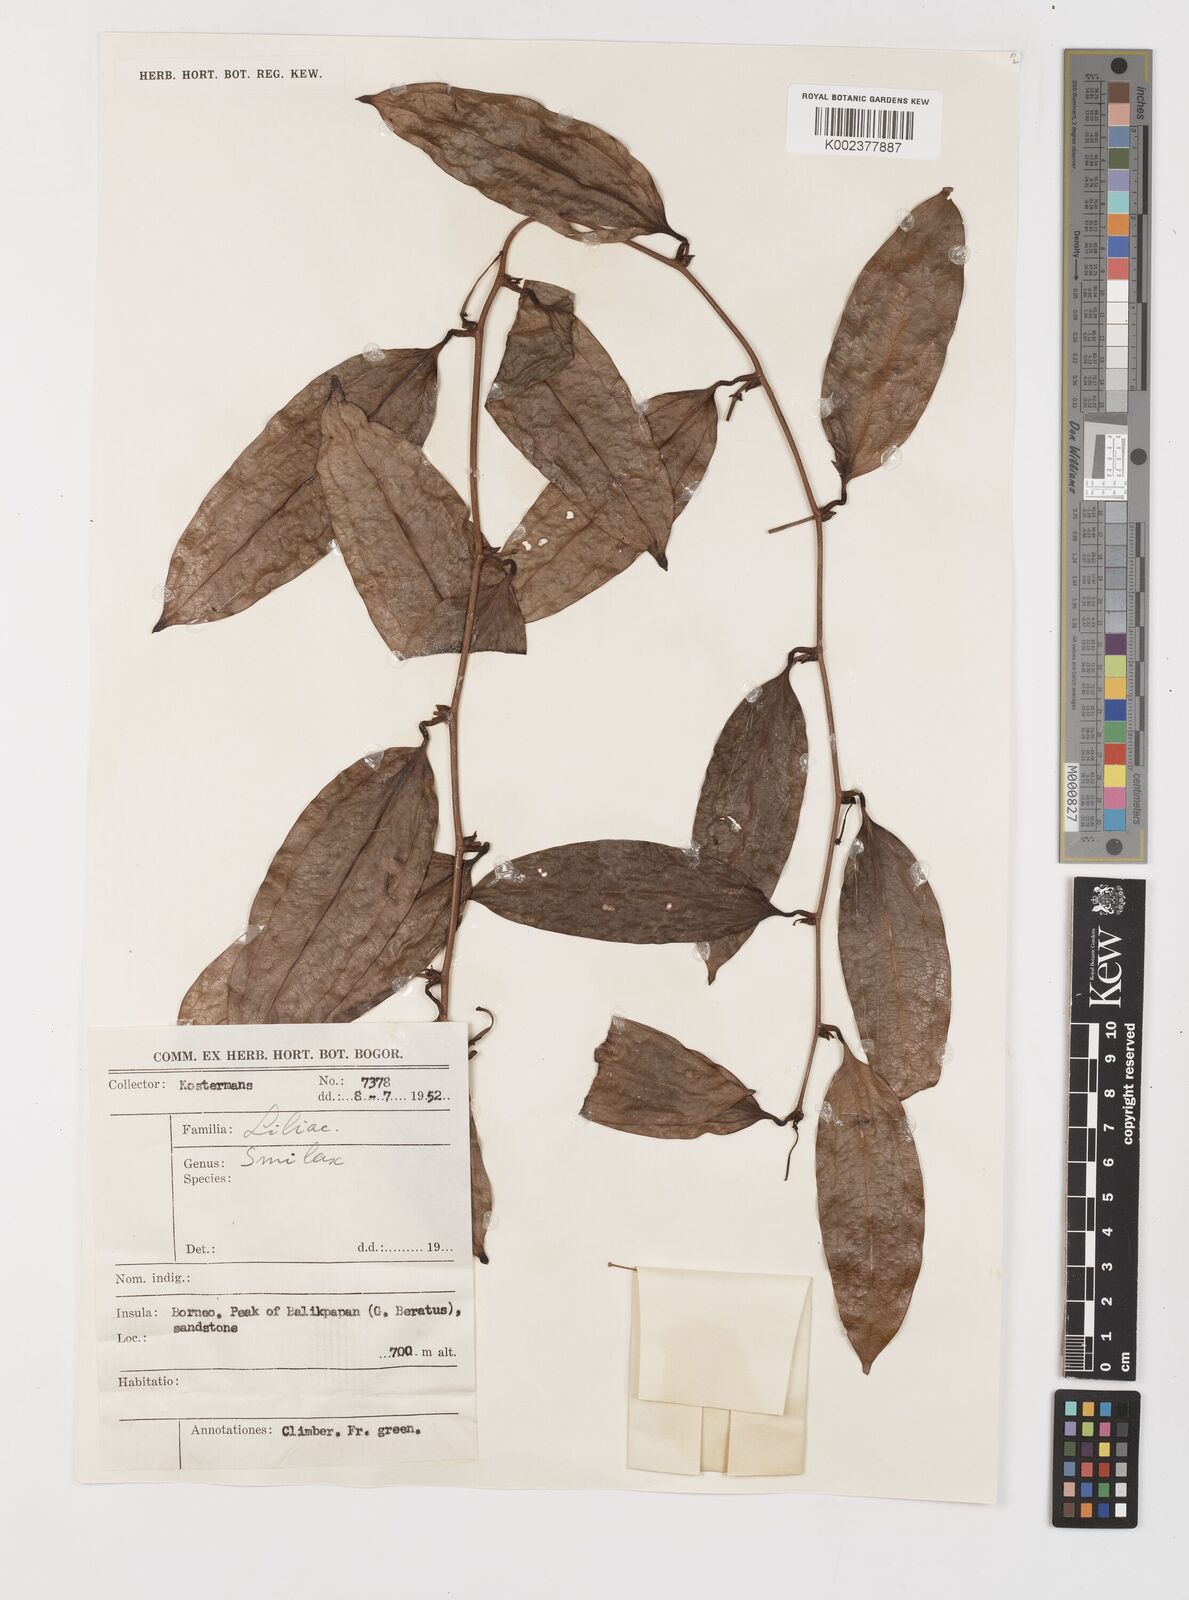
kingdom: Plantae
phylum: Tracheophyta
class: Liliopsida
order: Liliales
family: Smilacaceae
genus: Smilax
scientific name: Smilax
